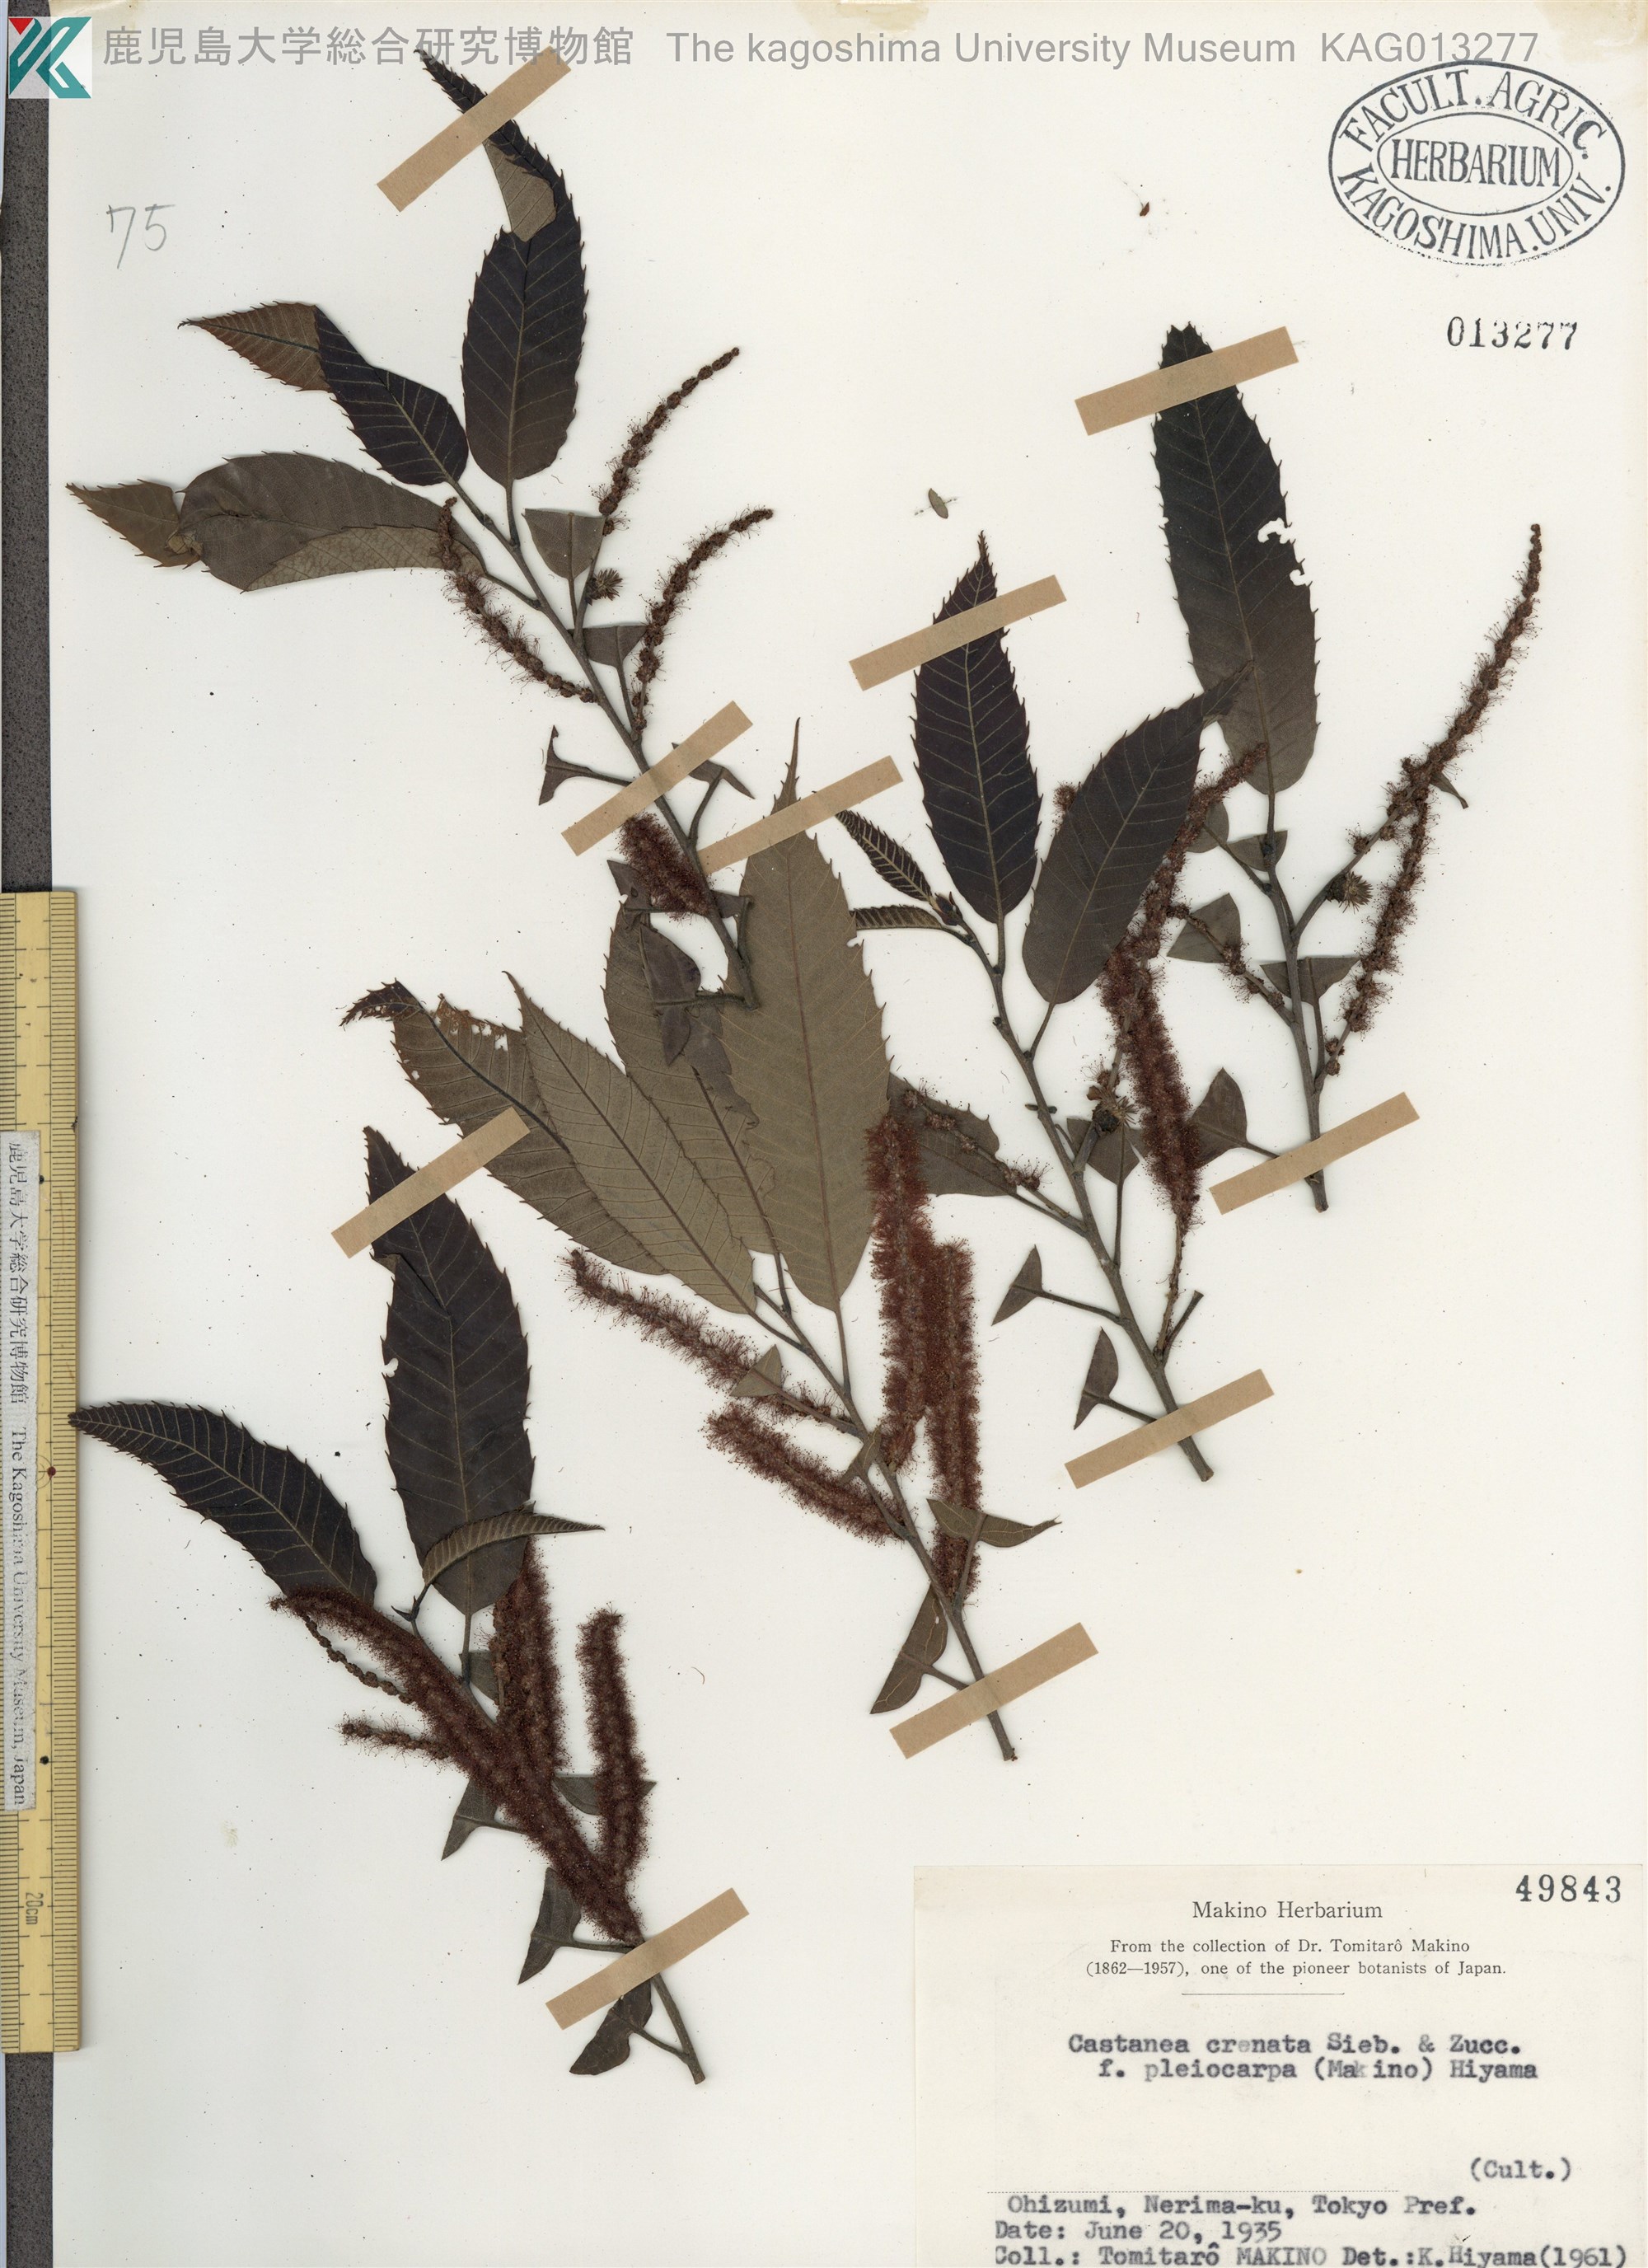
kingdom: Plantae
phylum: Tracheophyta
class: Magnoliopsida
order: Fagales
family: Fagaceae
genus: Castanea
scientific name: Castanea crenata
